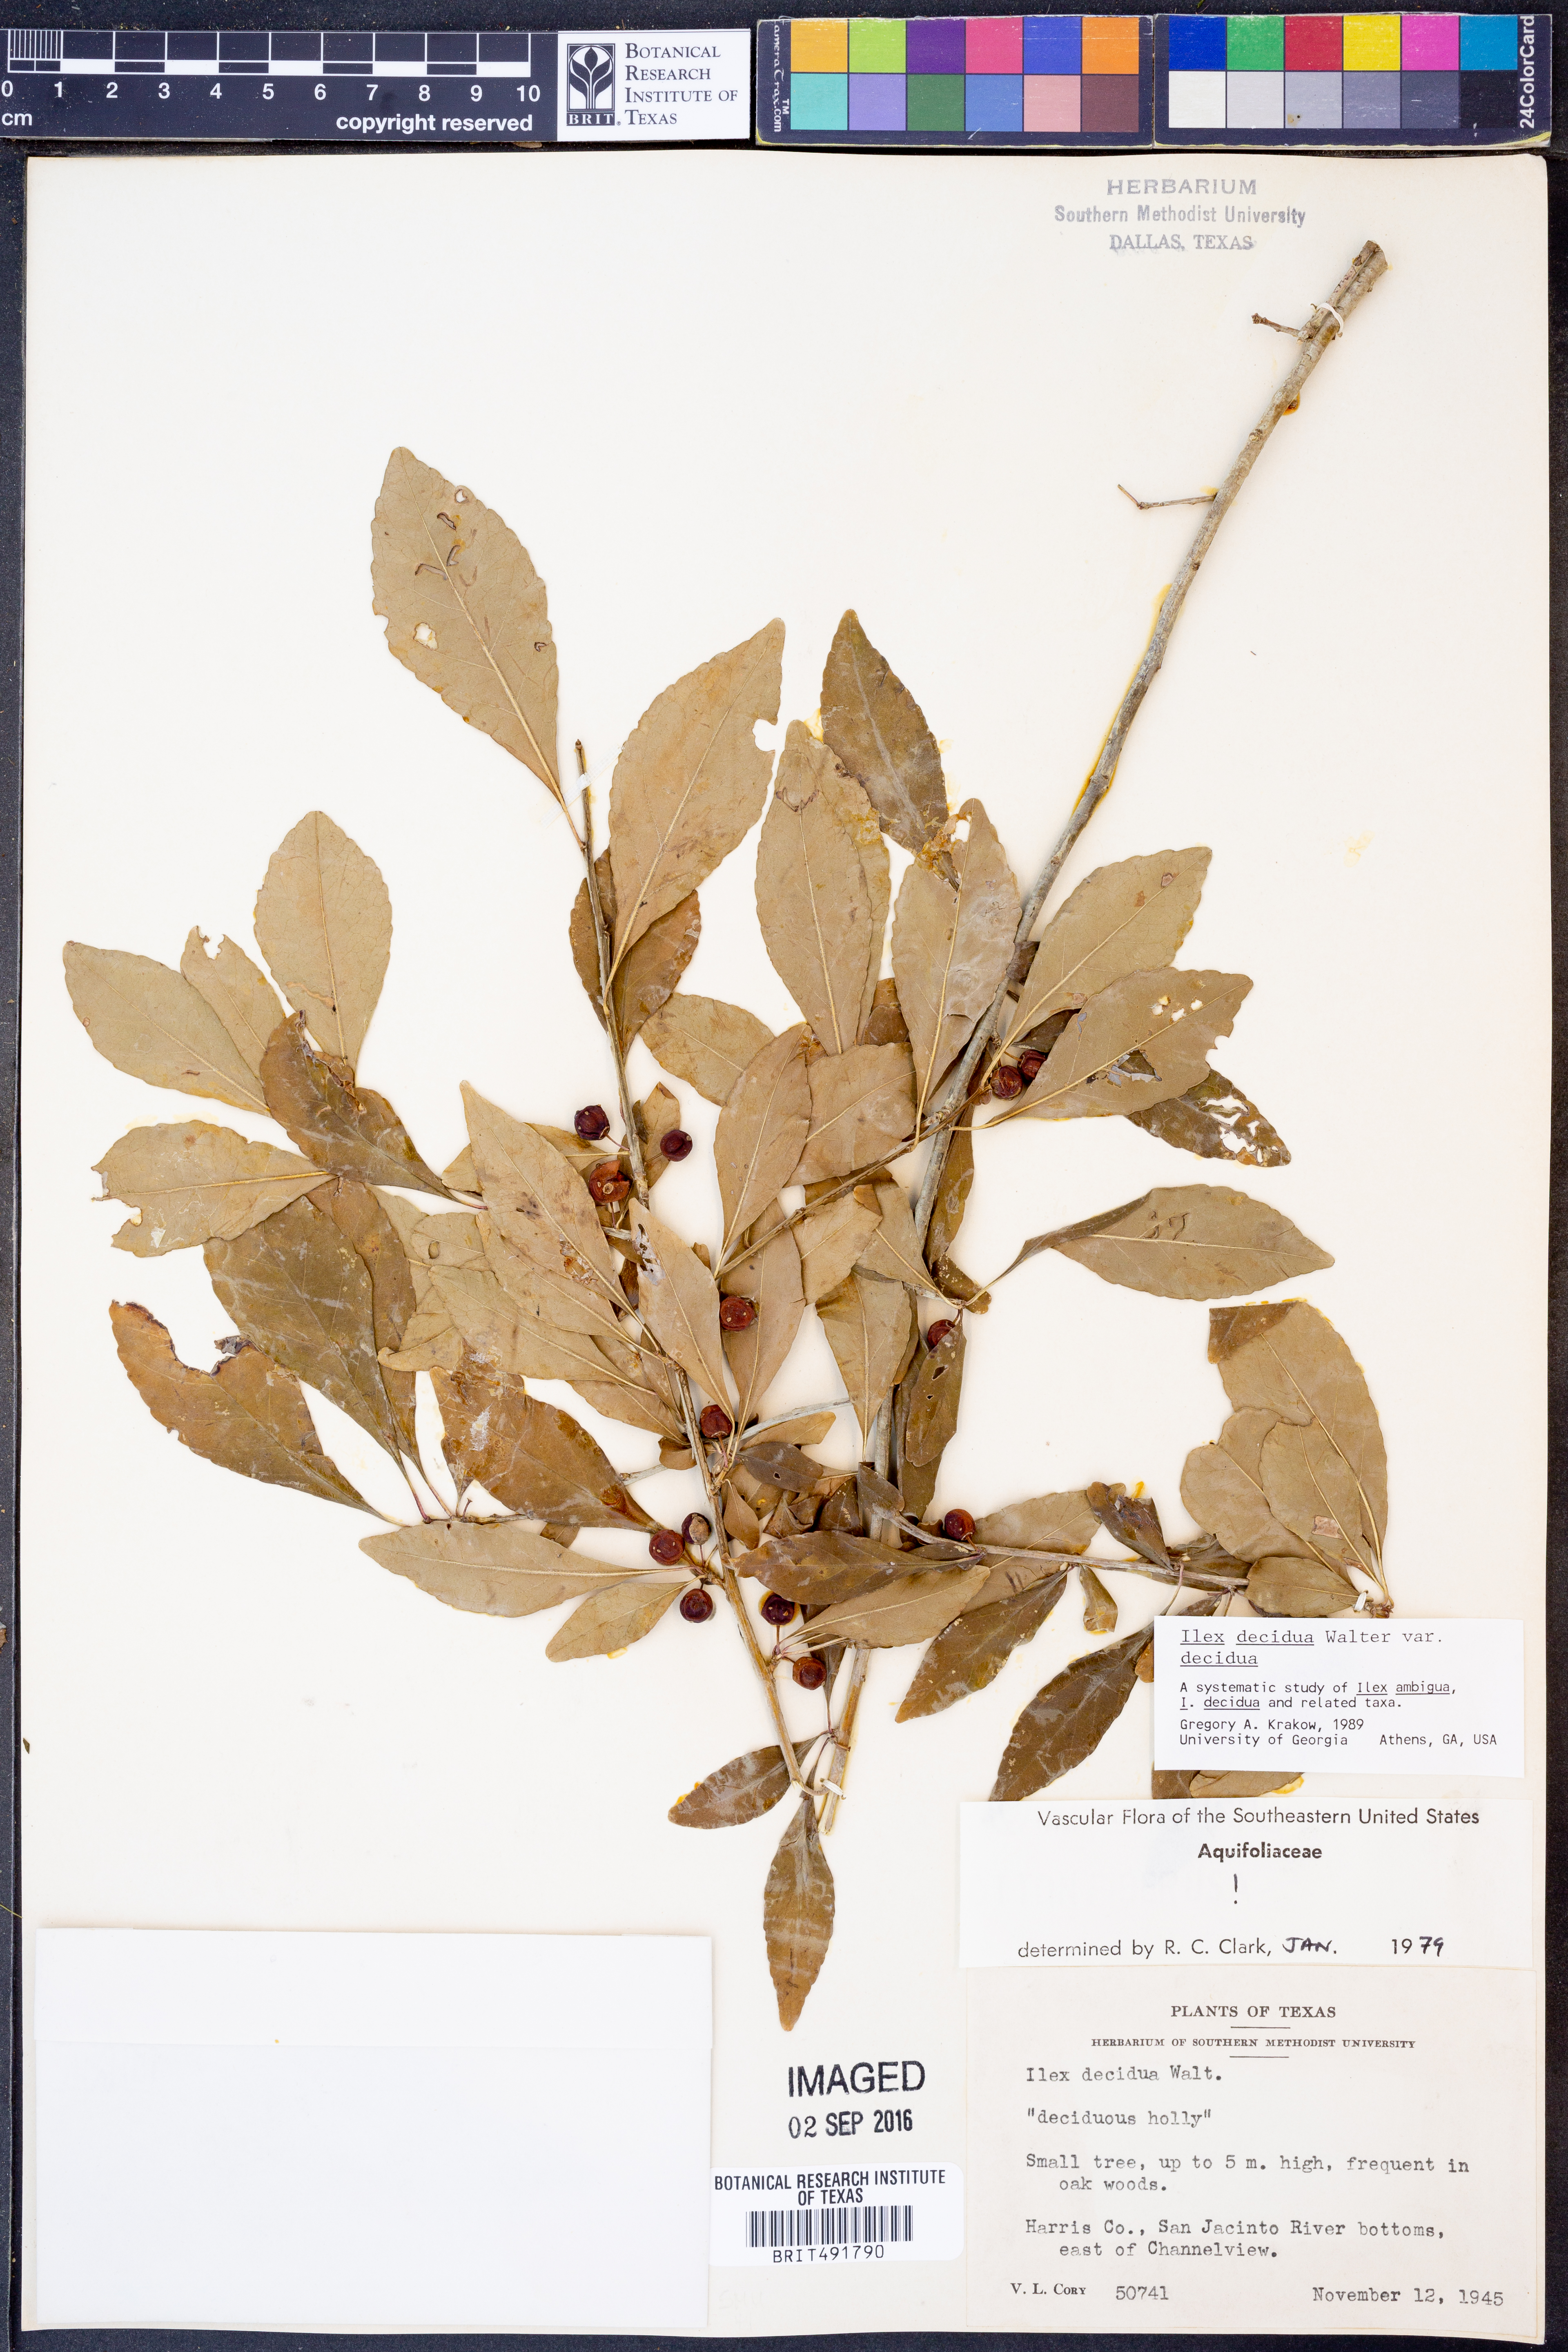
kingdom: Plantae
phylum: Tracheophyta
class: Magnoliopsida
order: Aquifoliales
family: Aquifoliaceae
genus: Ilex
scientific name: Ilex decidua
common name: Possum-haw
